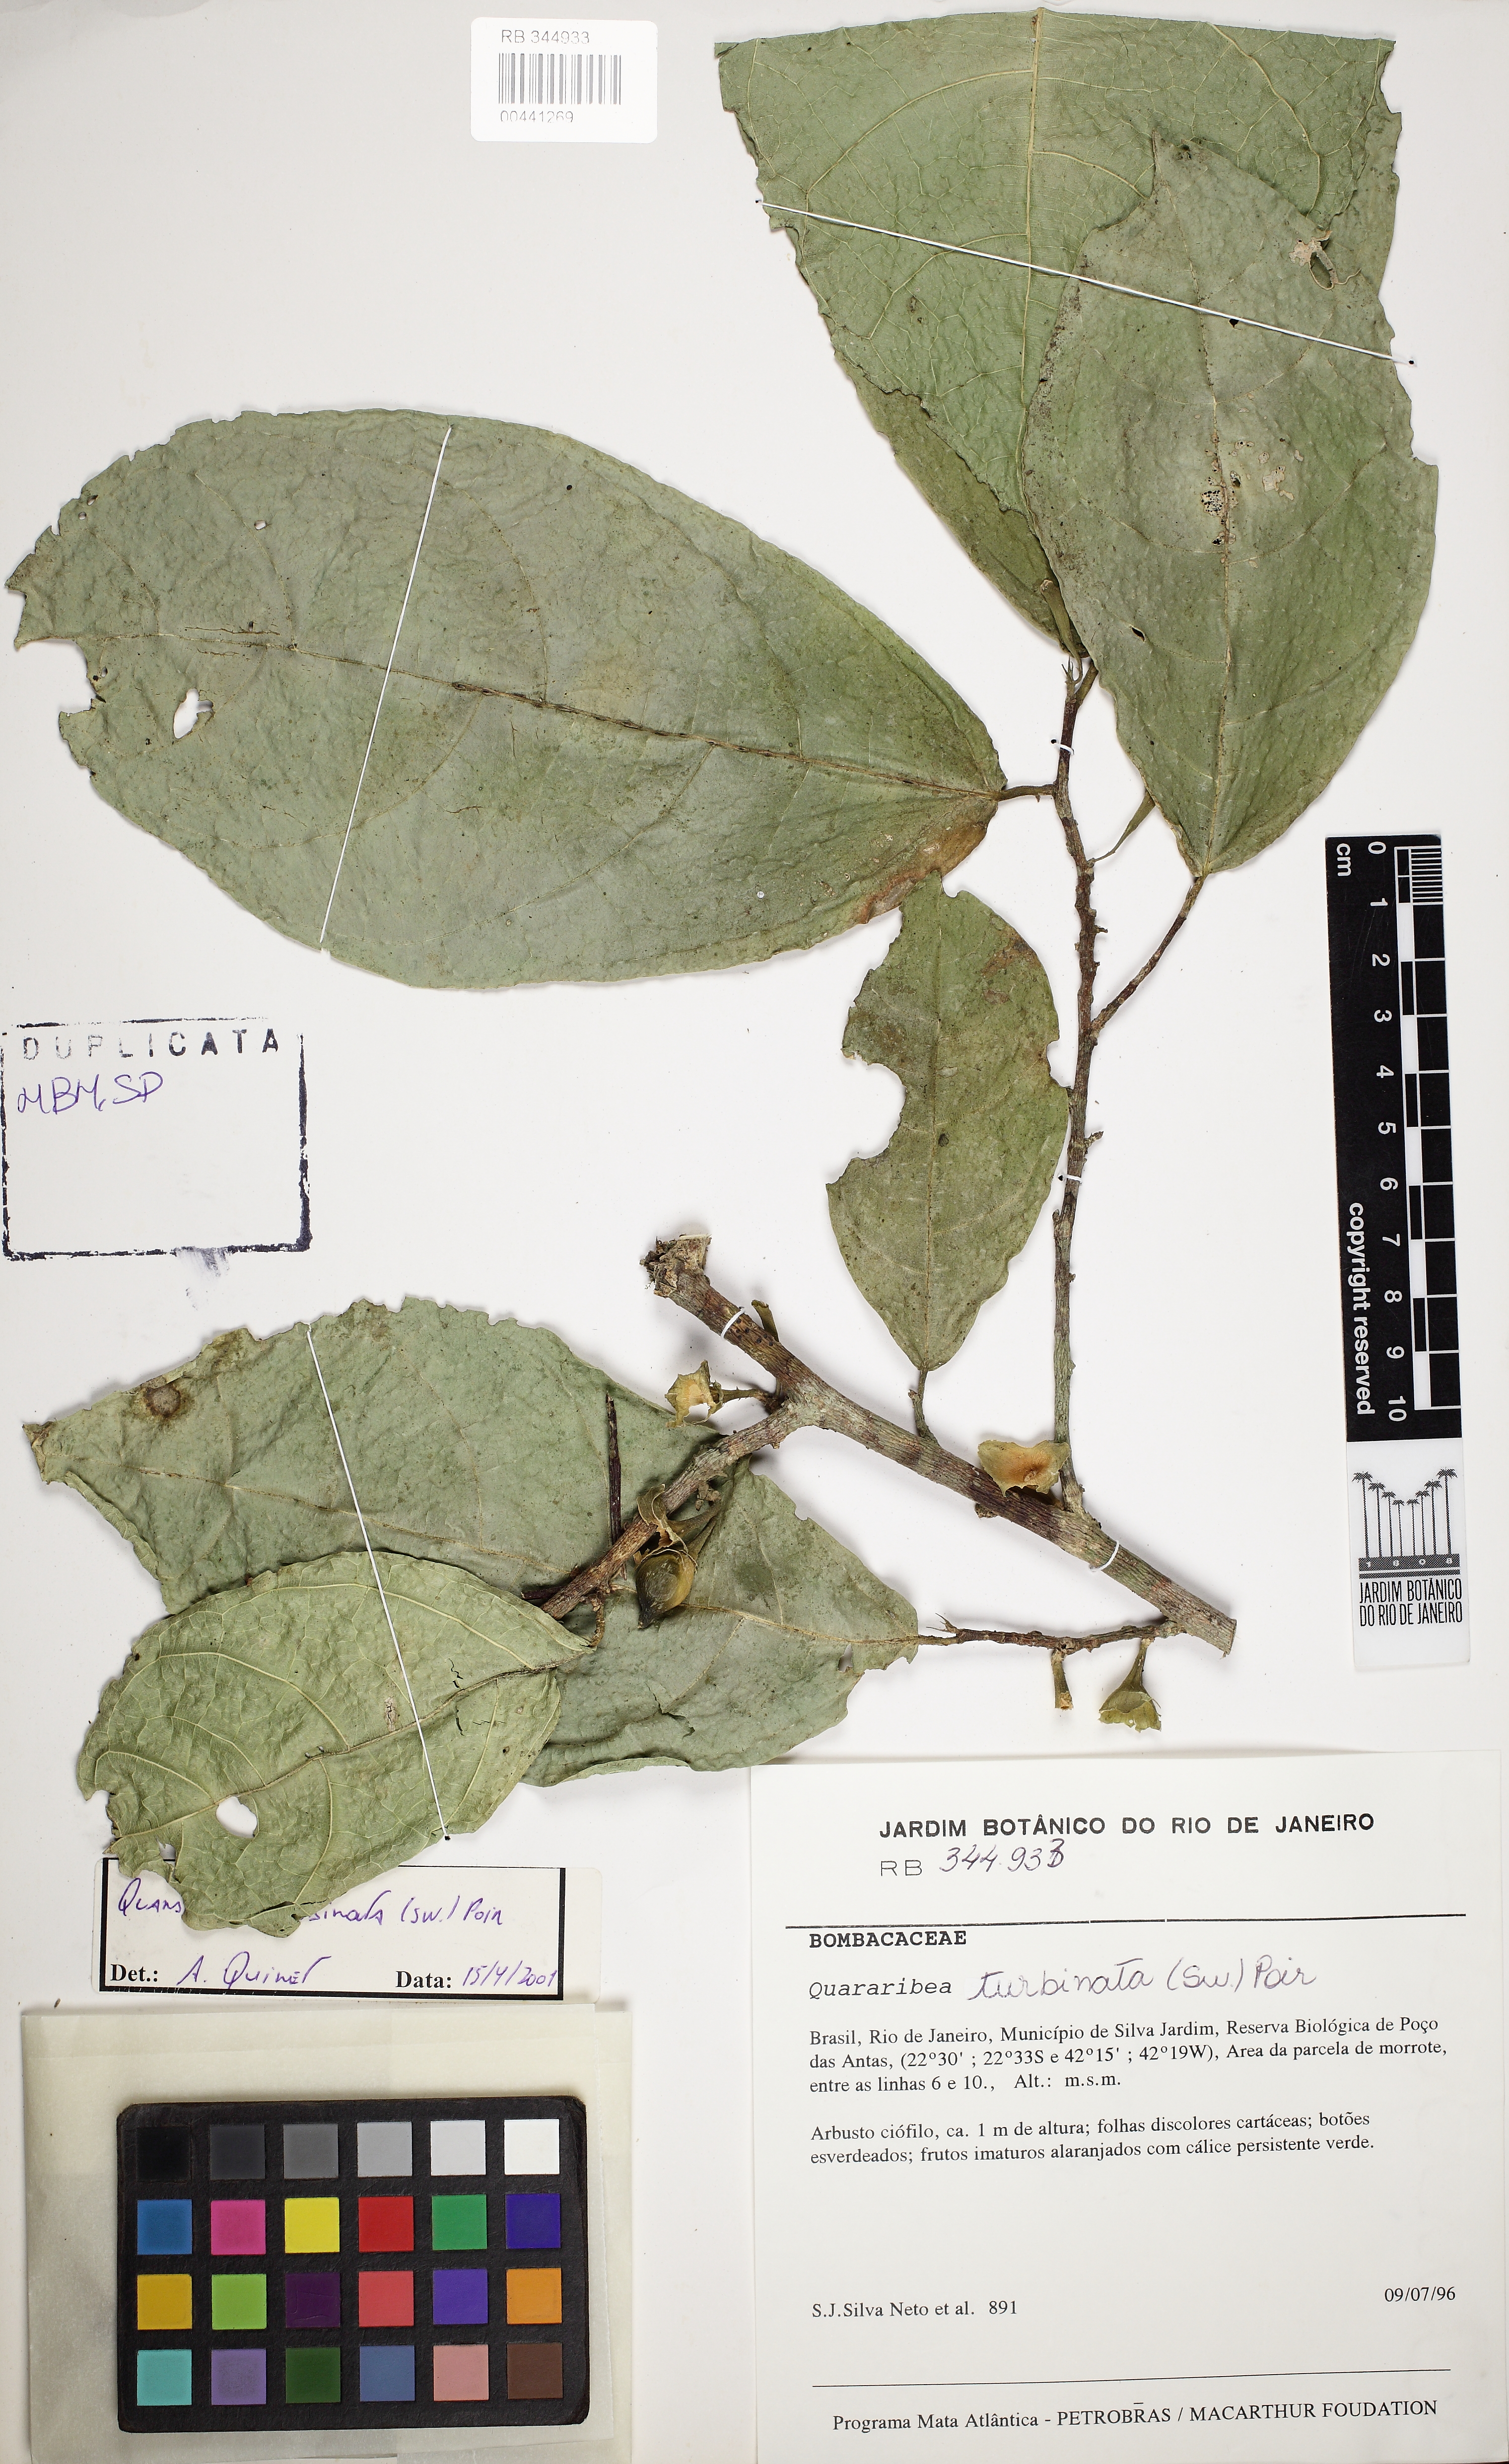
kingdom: Plantae
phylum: Tracheophyta
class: Magnoliopsida
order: Malvales
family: Malvaceae
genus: Quararibea
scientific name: Quararibea turbinata
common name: Swizzlestick-tree
